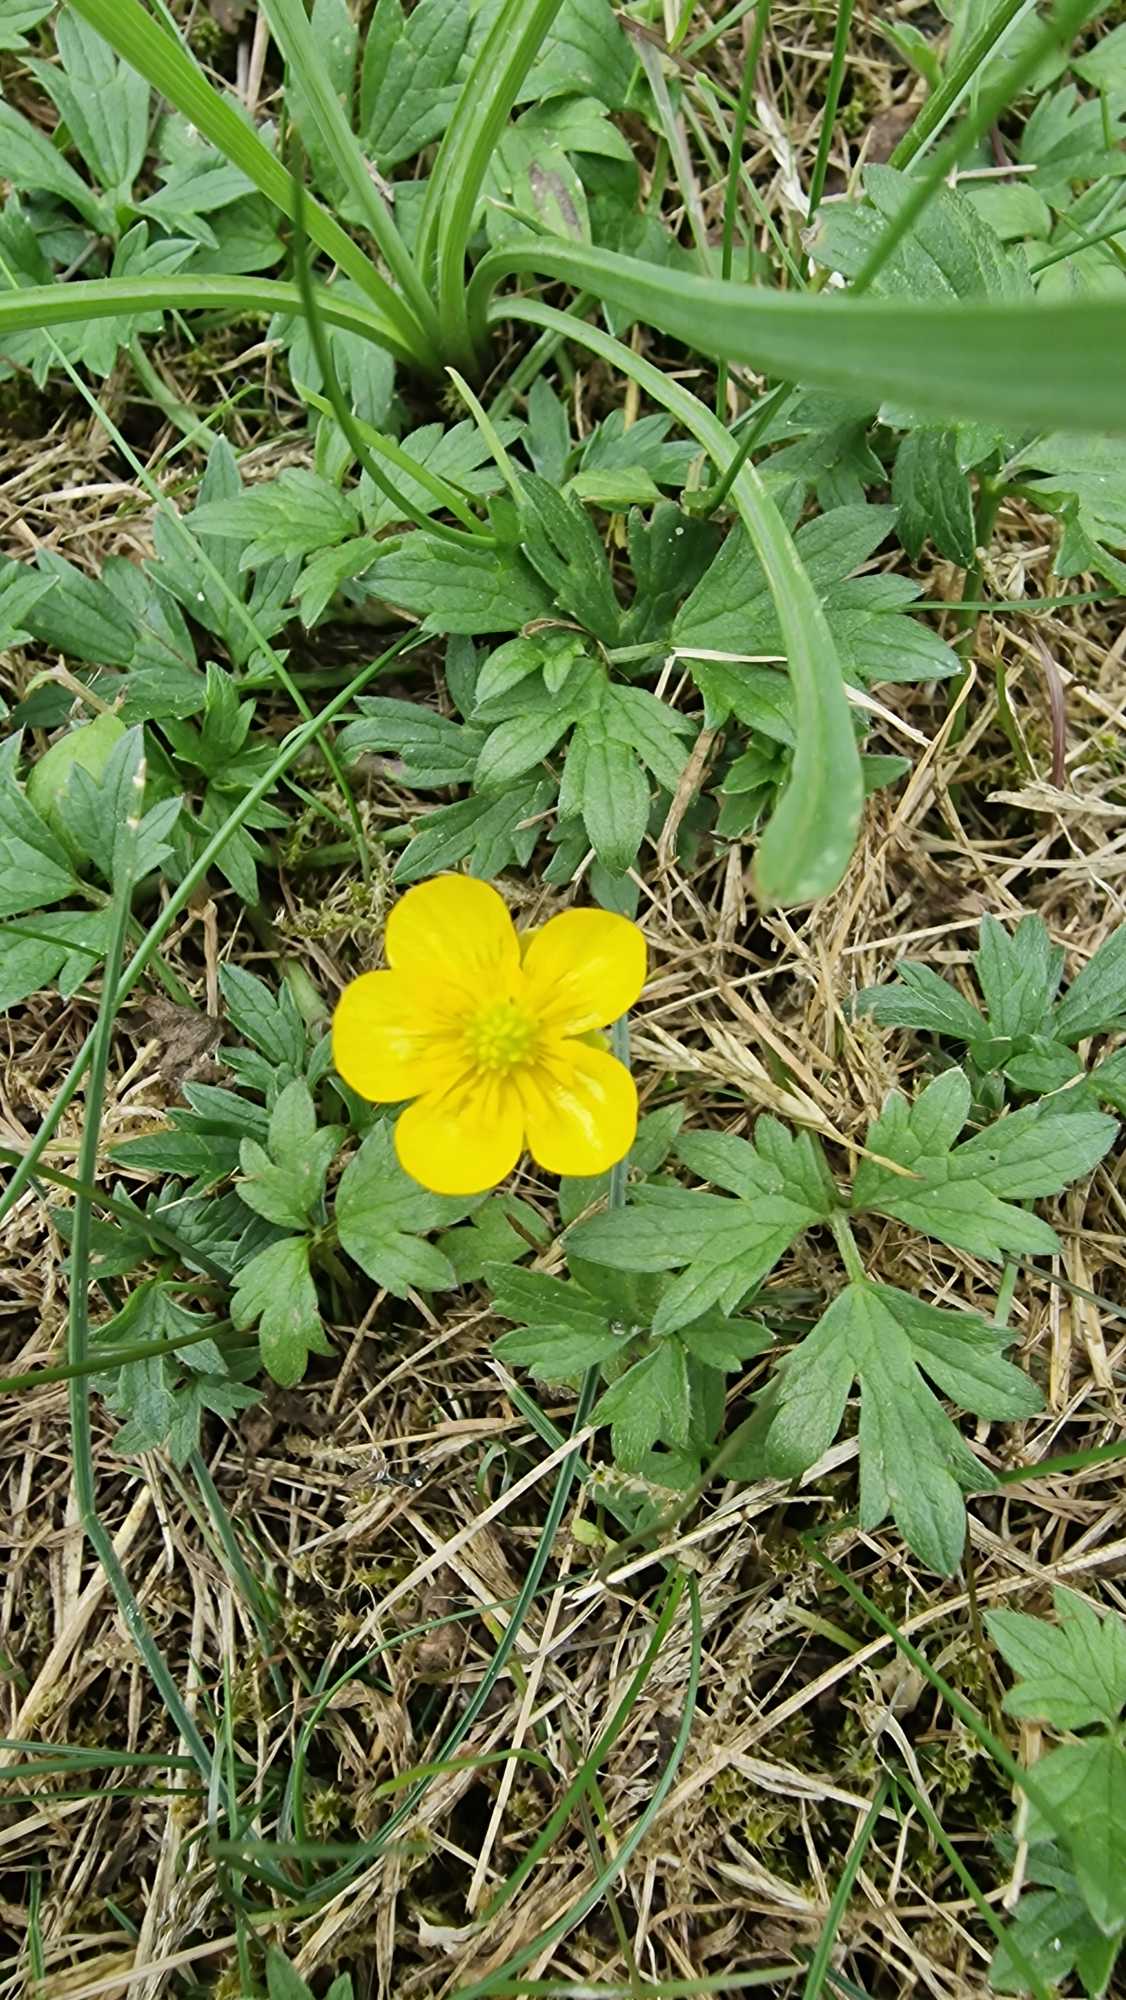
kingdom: Plantae
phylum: Tracheophyta
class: Magnoliopsida
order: Ranunculales
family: Ranunculaceae
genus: Ranunculus
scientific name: Ranunculus repens
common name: Lav ranunkel
